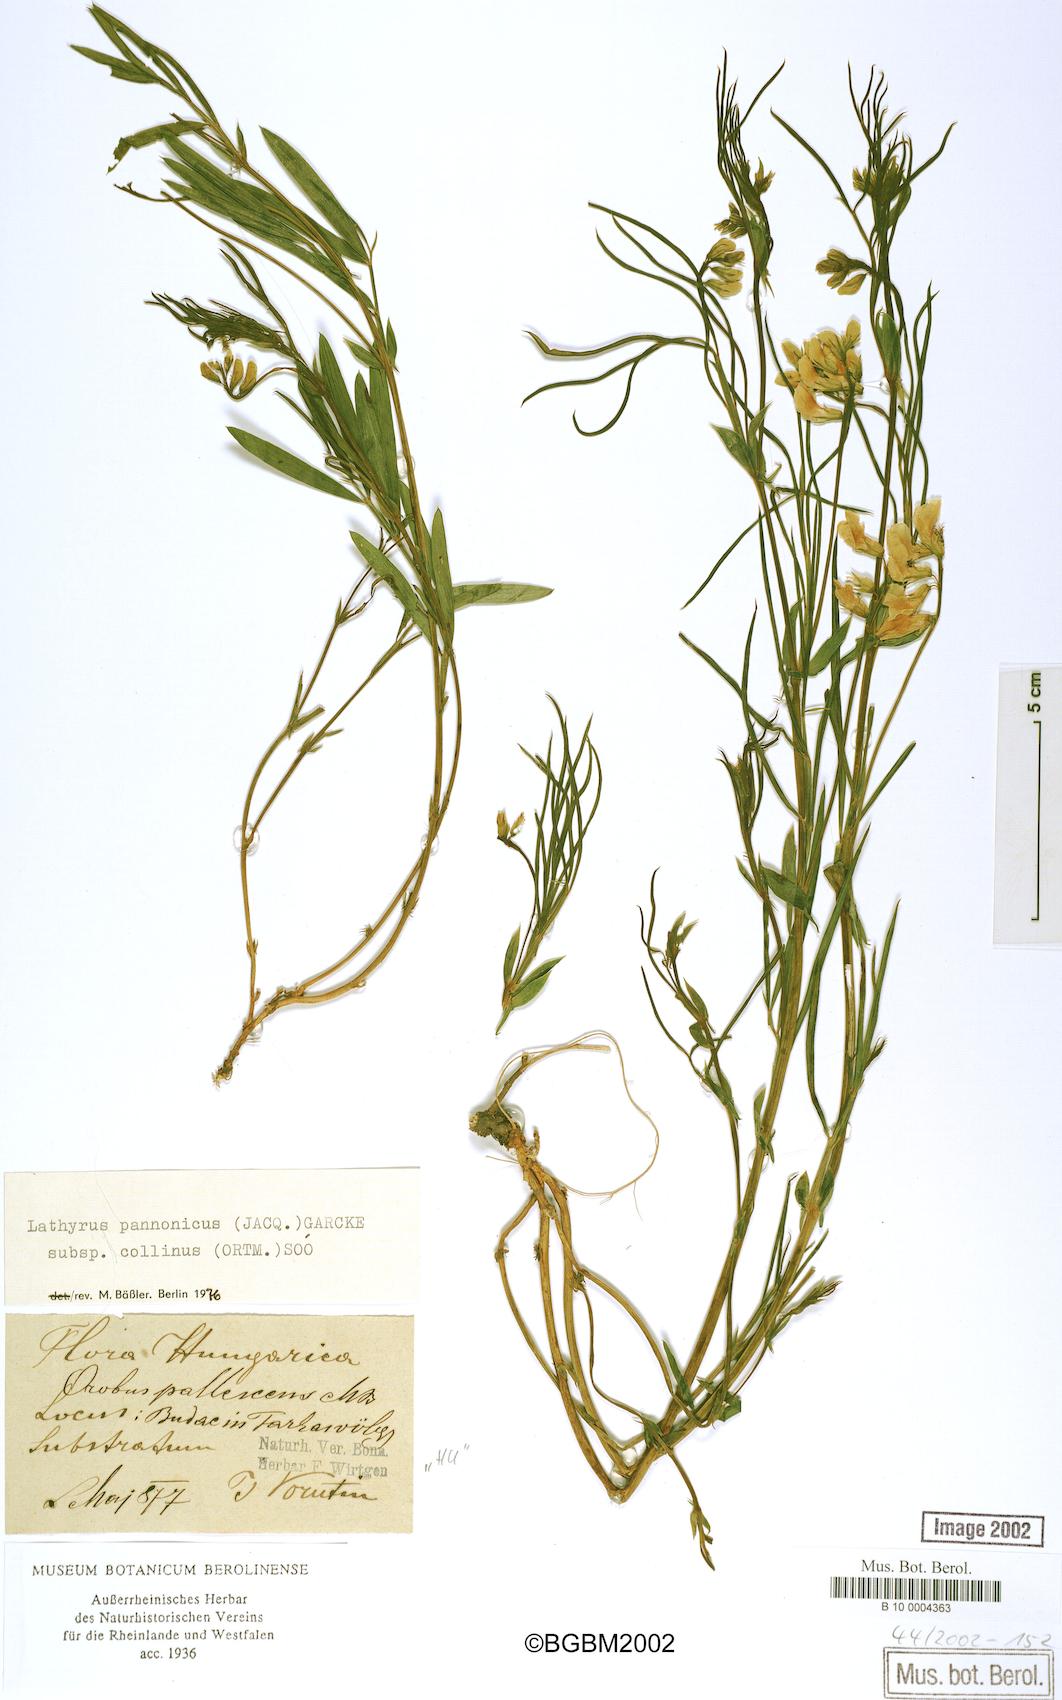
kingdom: Plantae
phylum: Tracheophyta
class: Magnoliopsida
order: Fabales
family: Fabaceae
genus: Lathyrus
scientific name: Lathyrus pannonicus
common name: Pea
